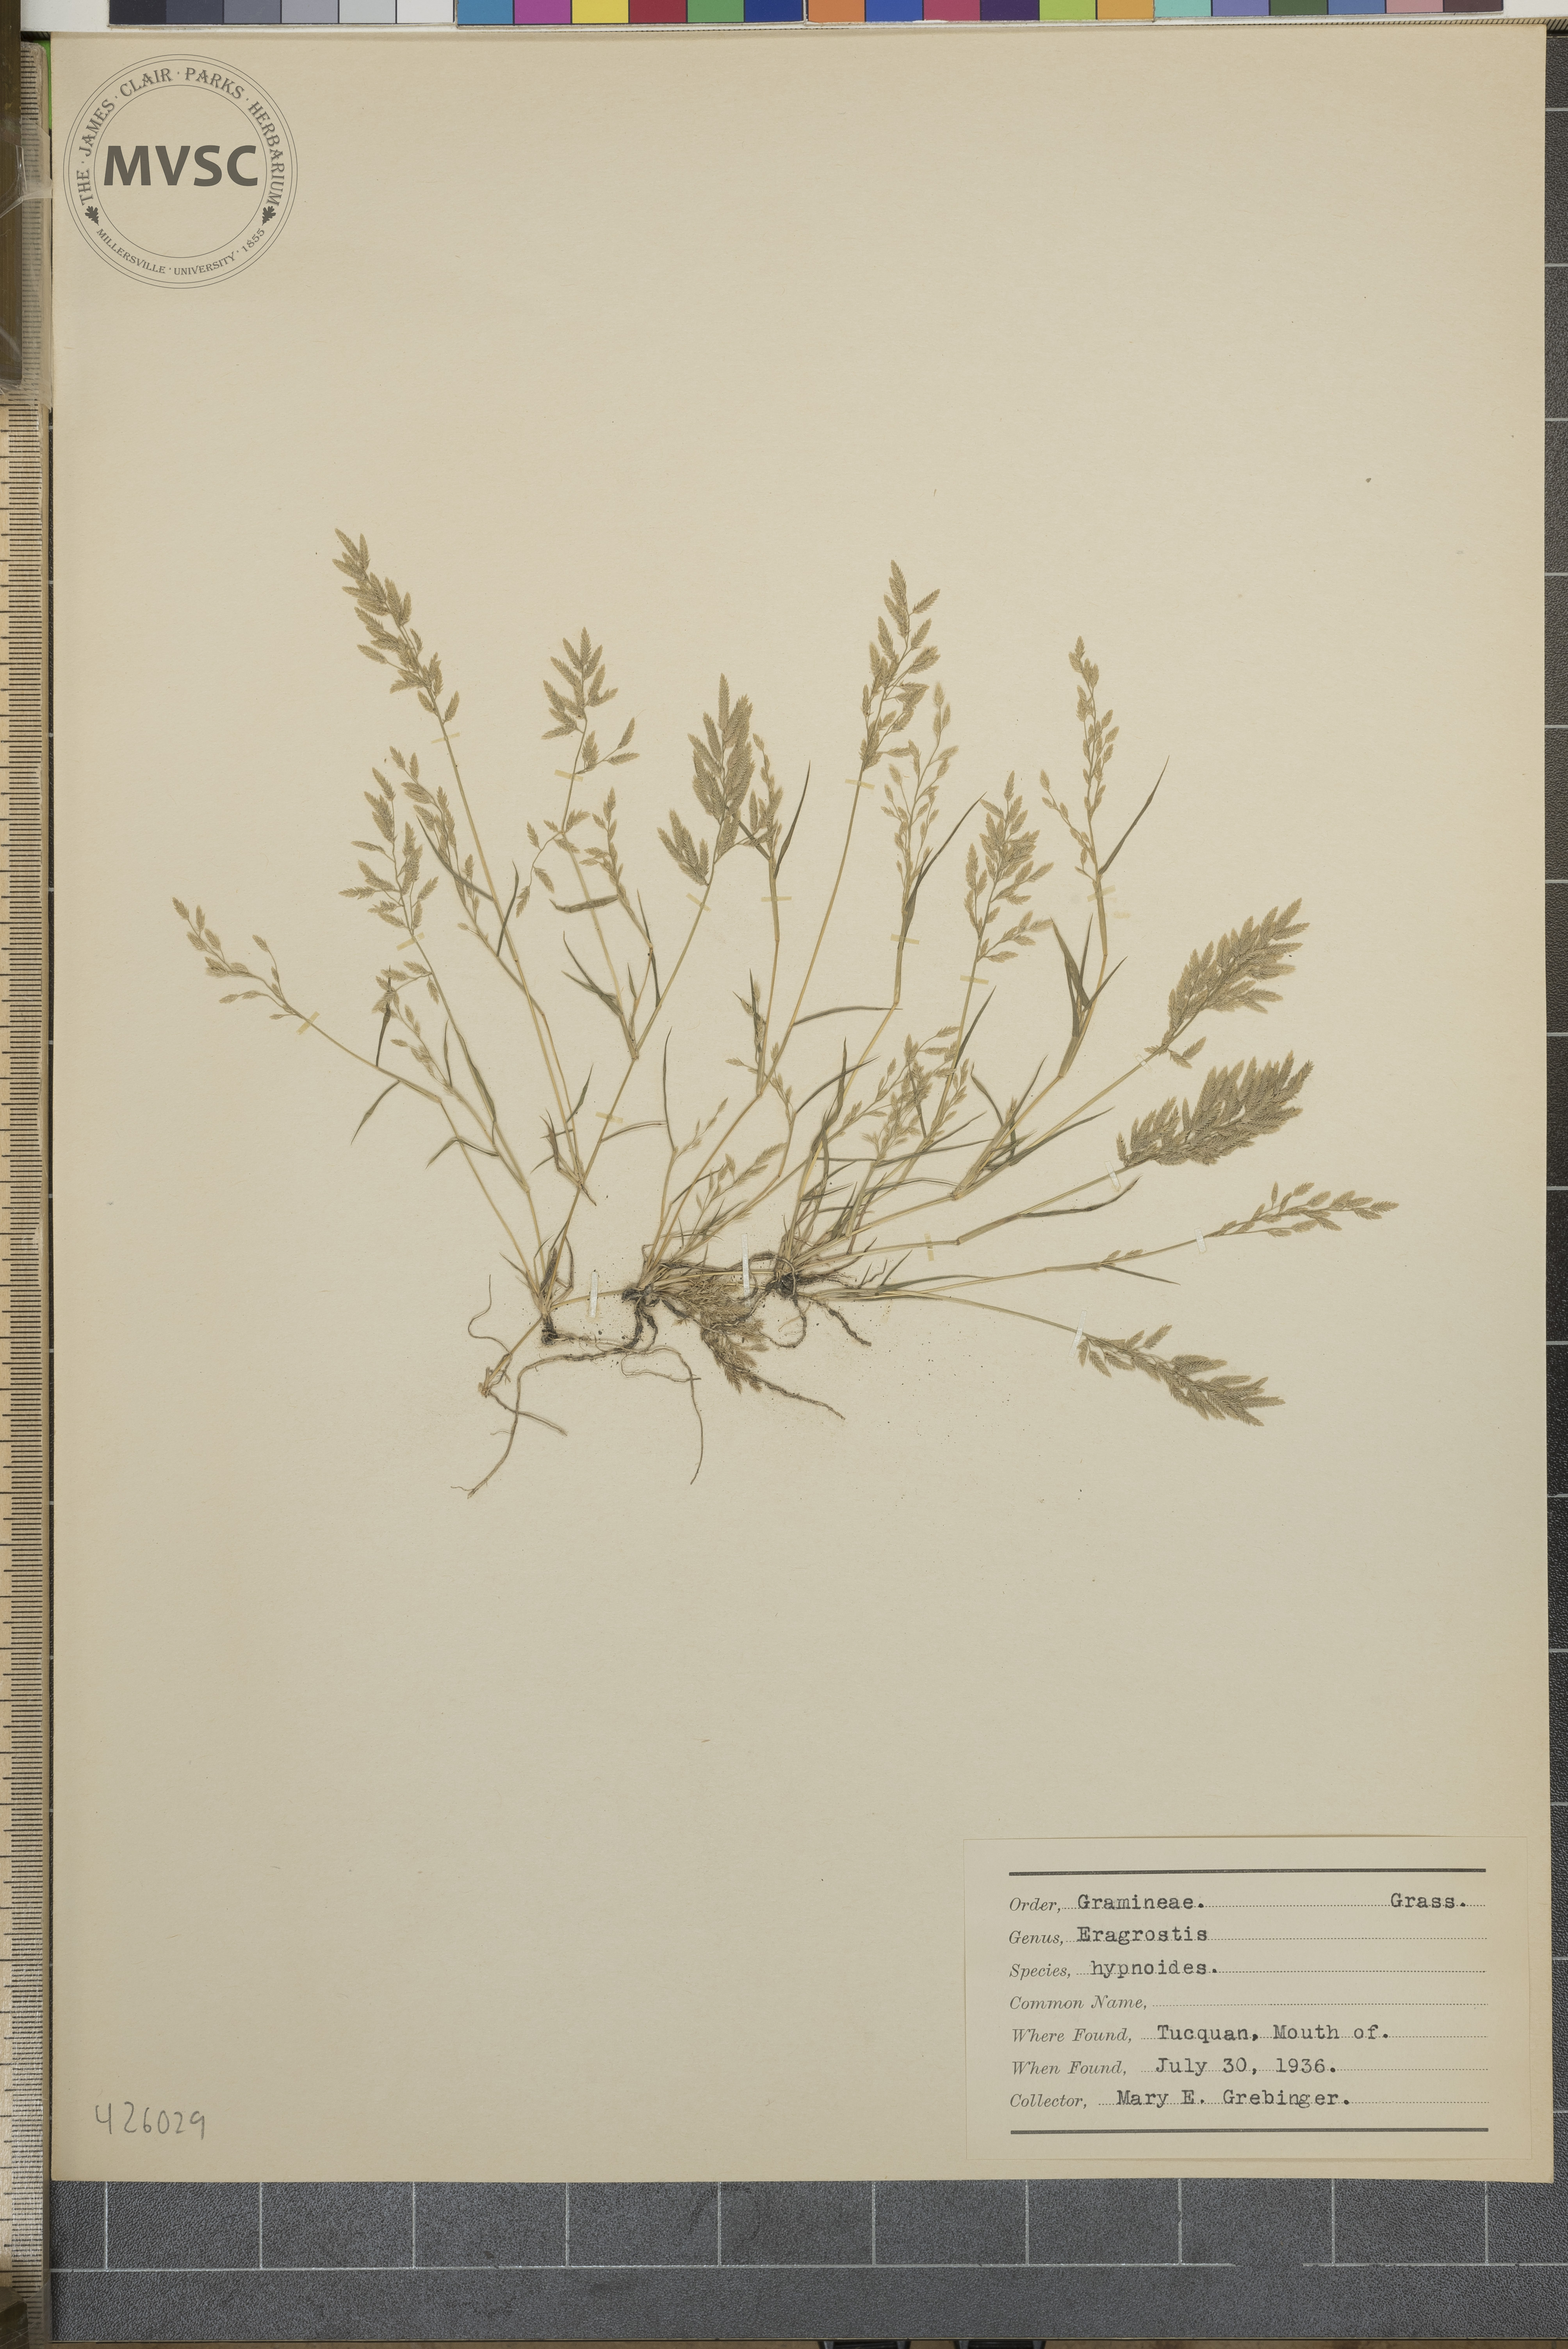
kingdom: Plantae
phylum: Tracheophyta
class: Liliopsida
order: Poales
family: Poaceae
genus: Eragrostis
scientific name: Eragrostis hypnoides
